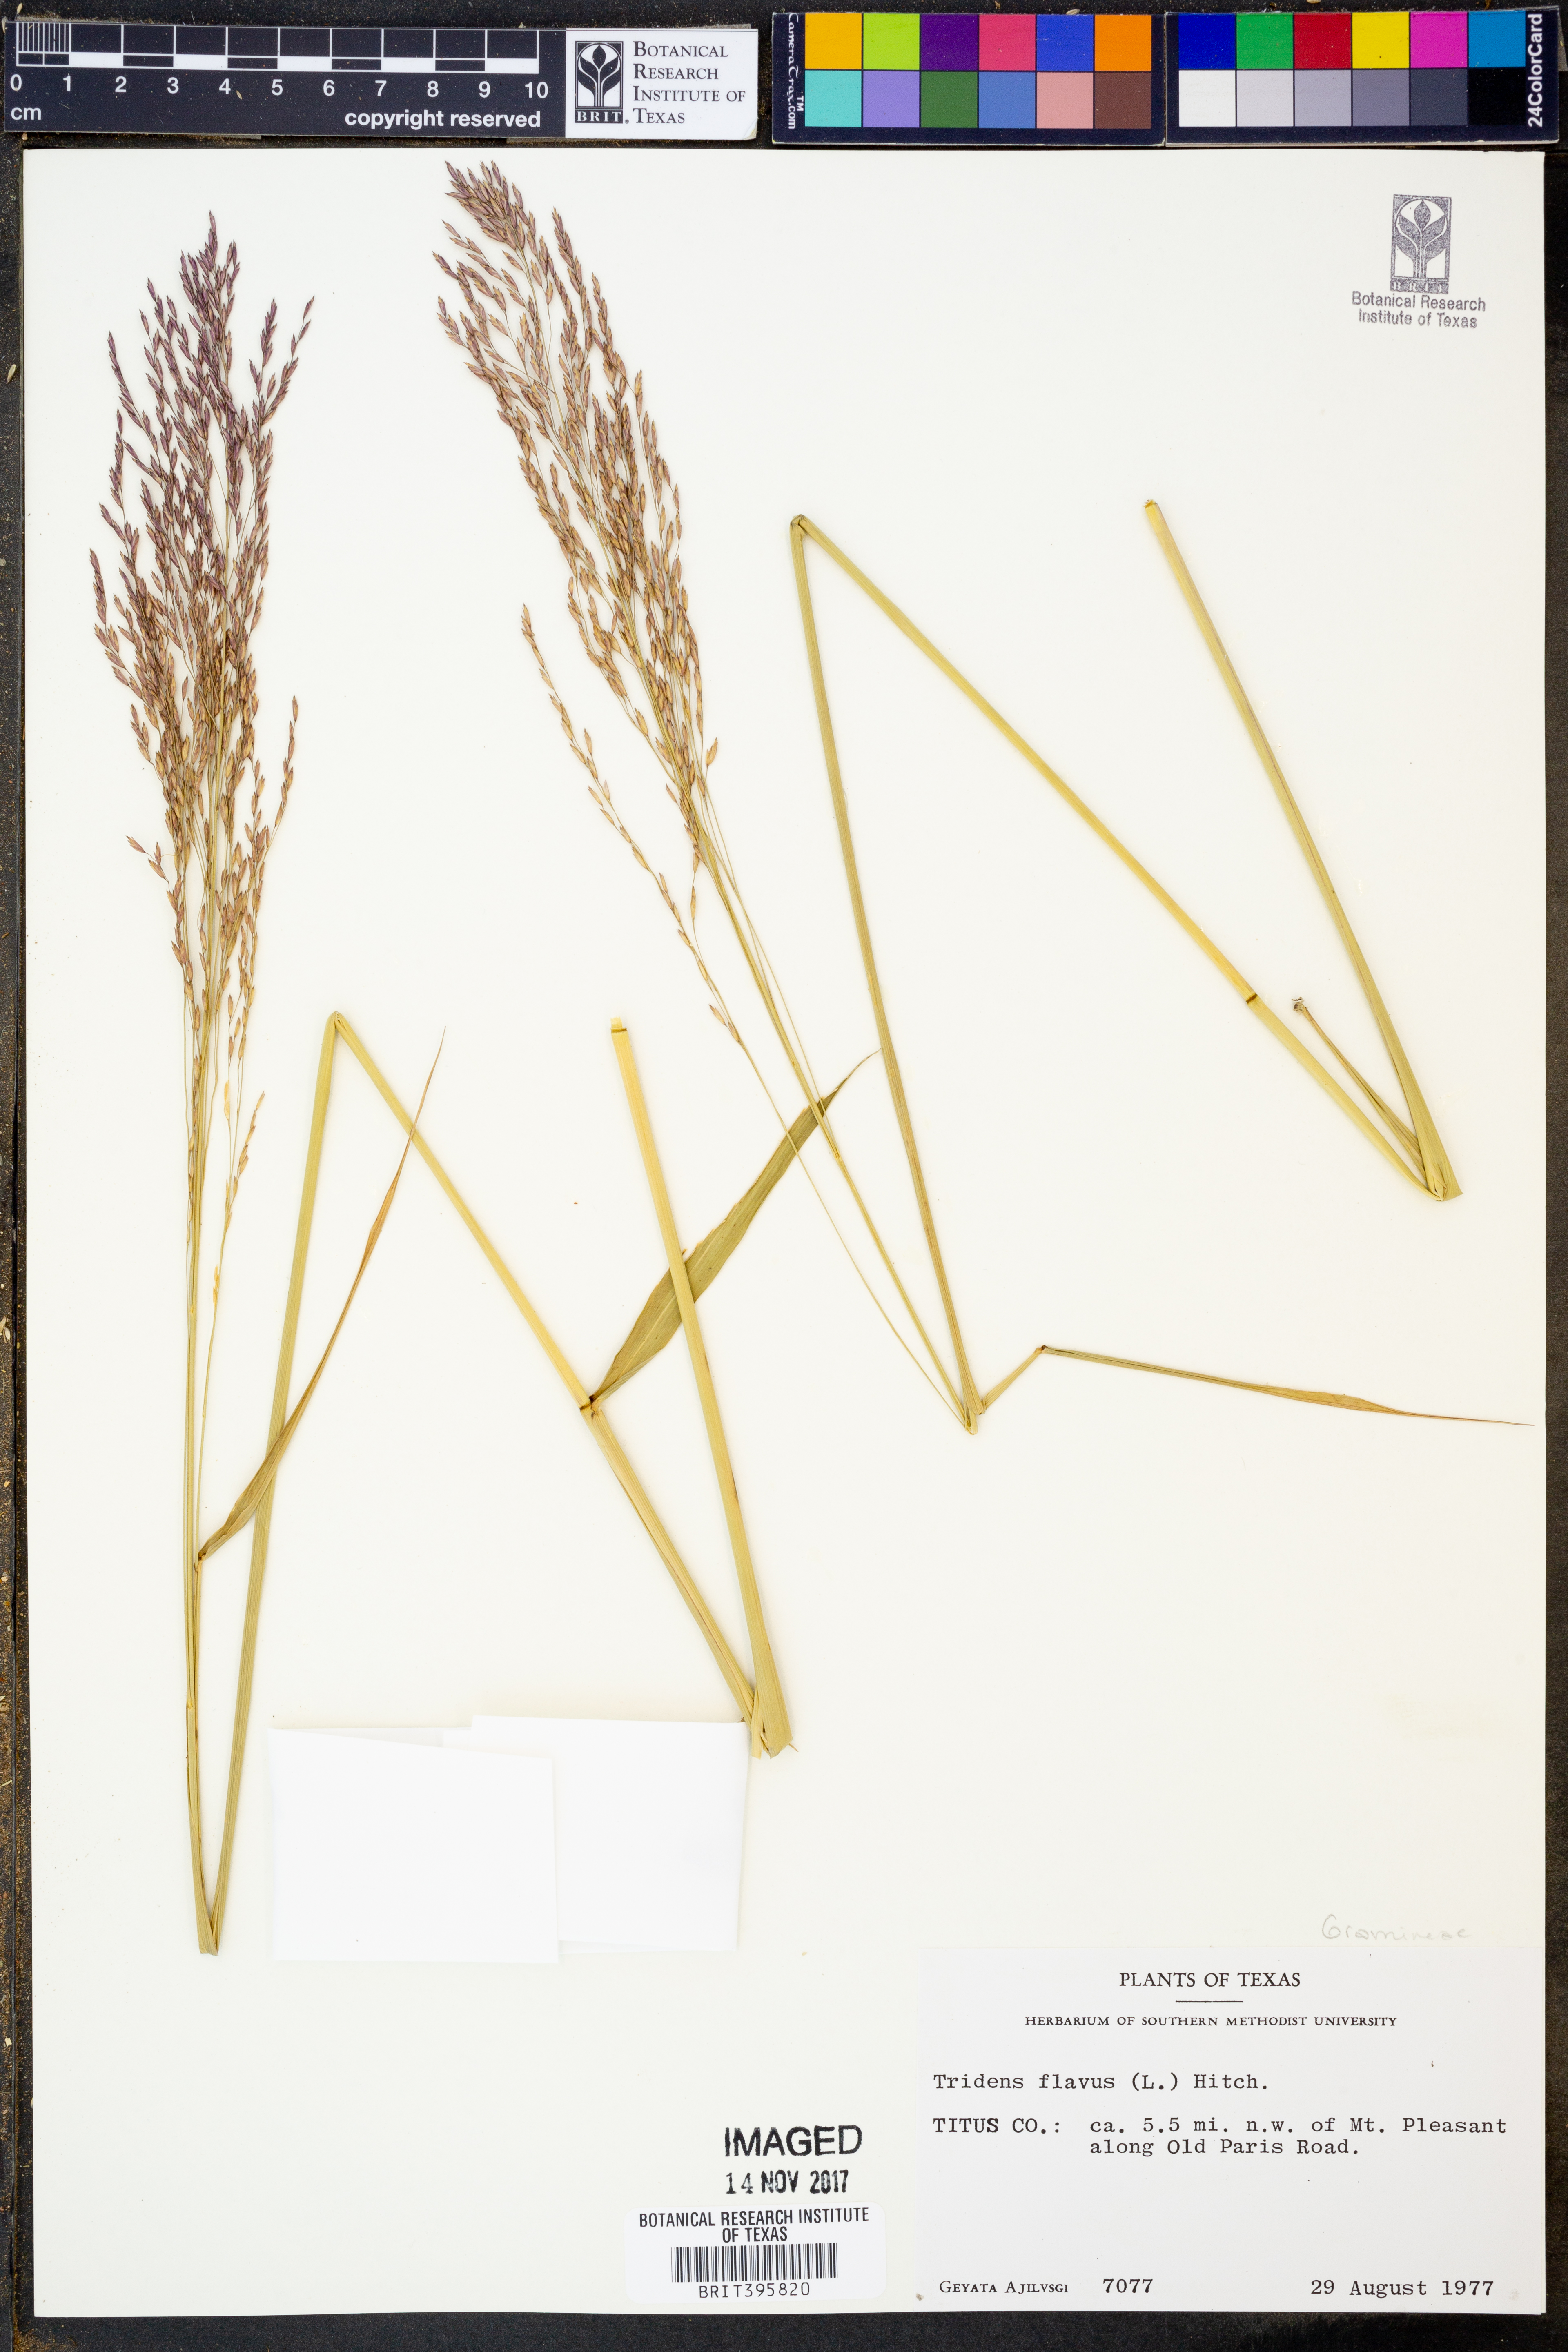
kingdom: Plantae
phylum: Tracheophyta
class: Liliopsida
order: Poales
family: Poaceae
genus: Tridens
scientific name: Tridens flavus
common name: Purpletop
